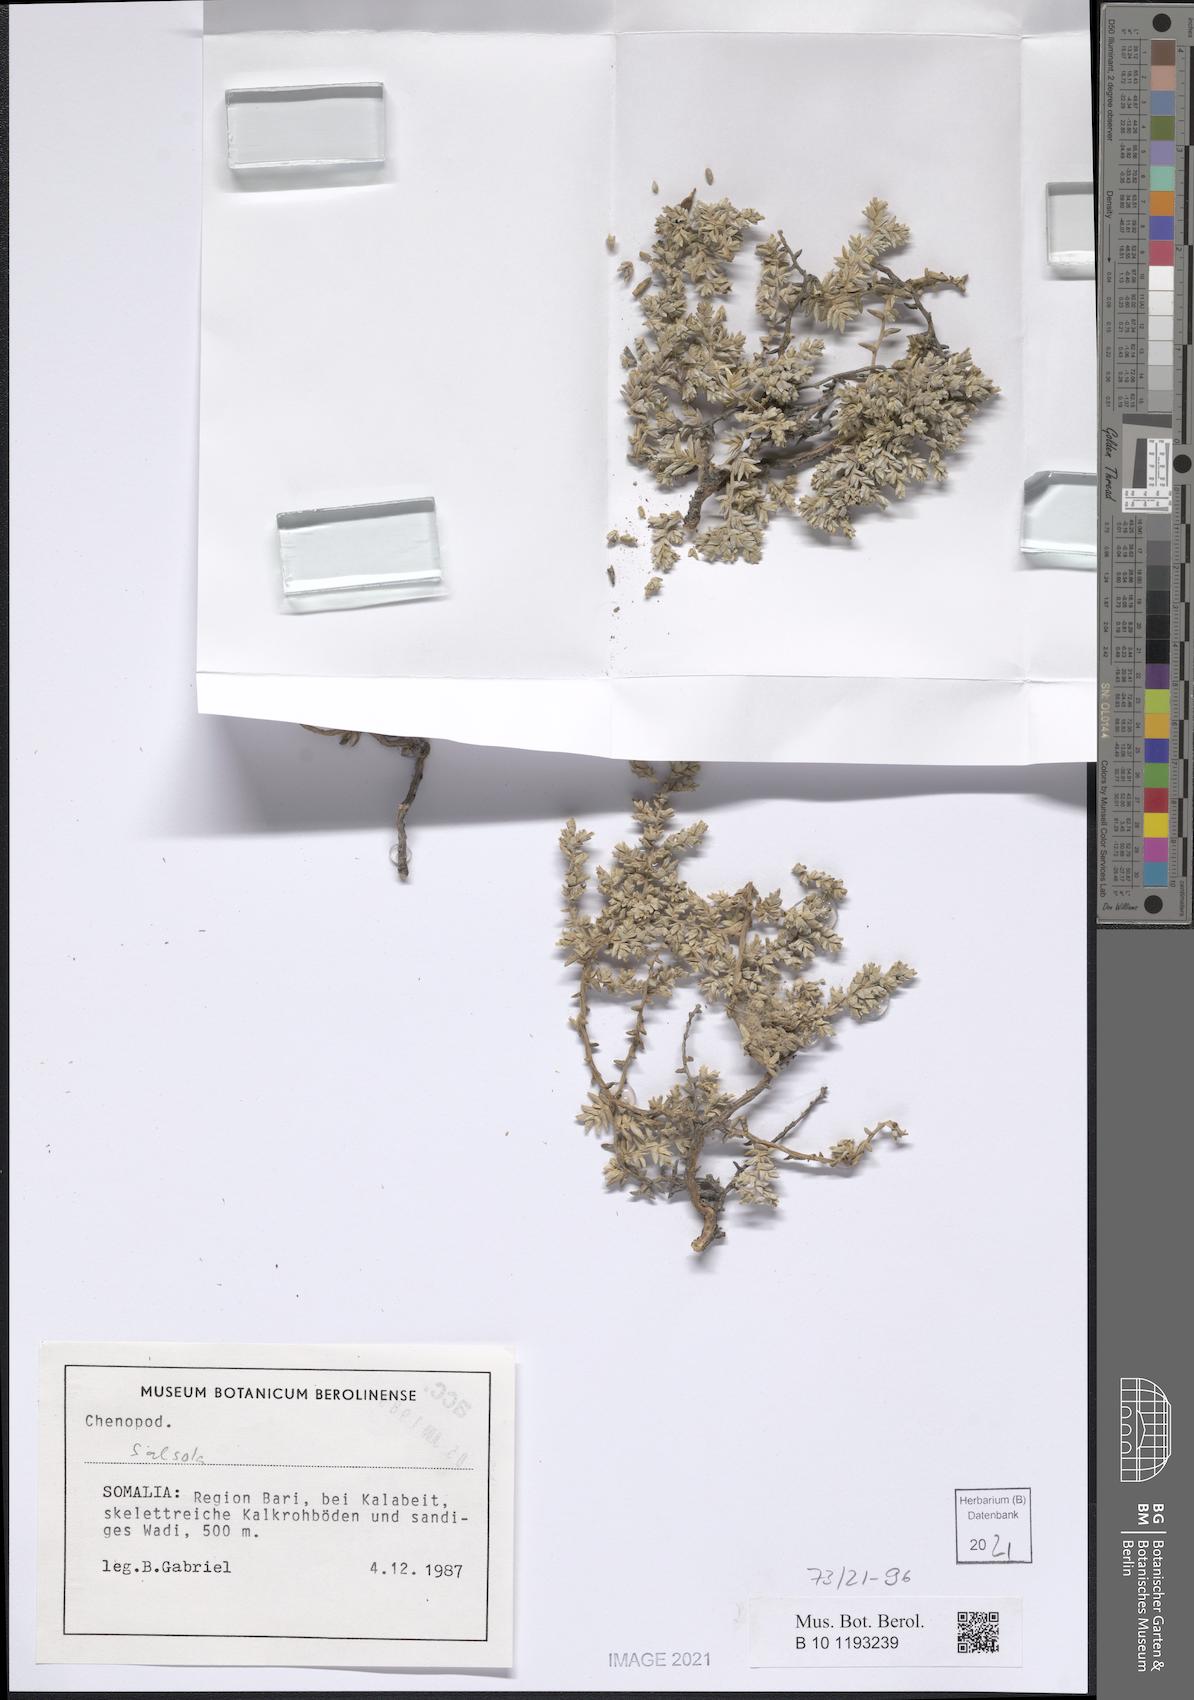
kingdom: Plantae
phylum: Tracheophyta
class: Magnoliopsida
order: Caryophyllales
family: Amaranthaceae
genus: Salsola
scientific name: Salsola
